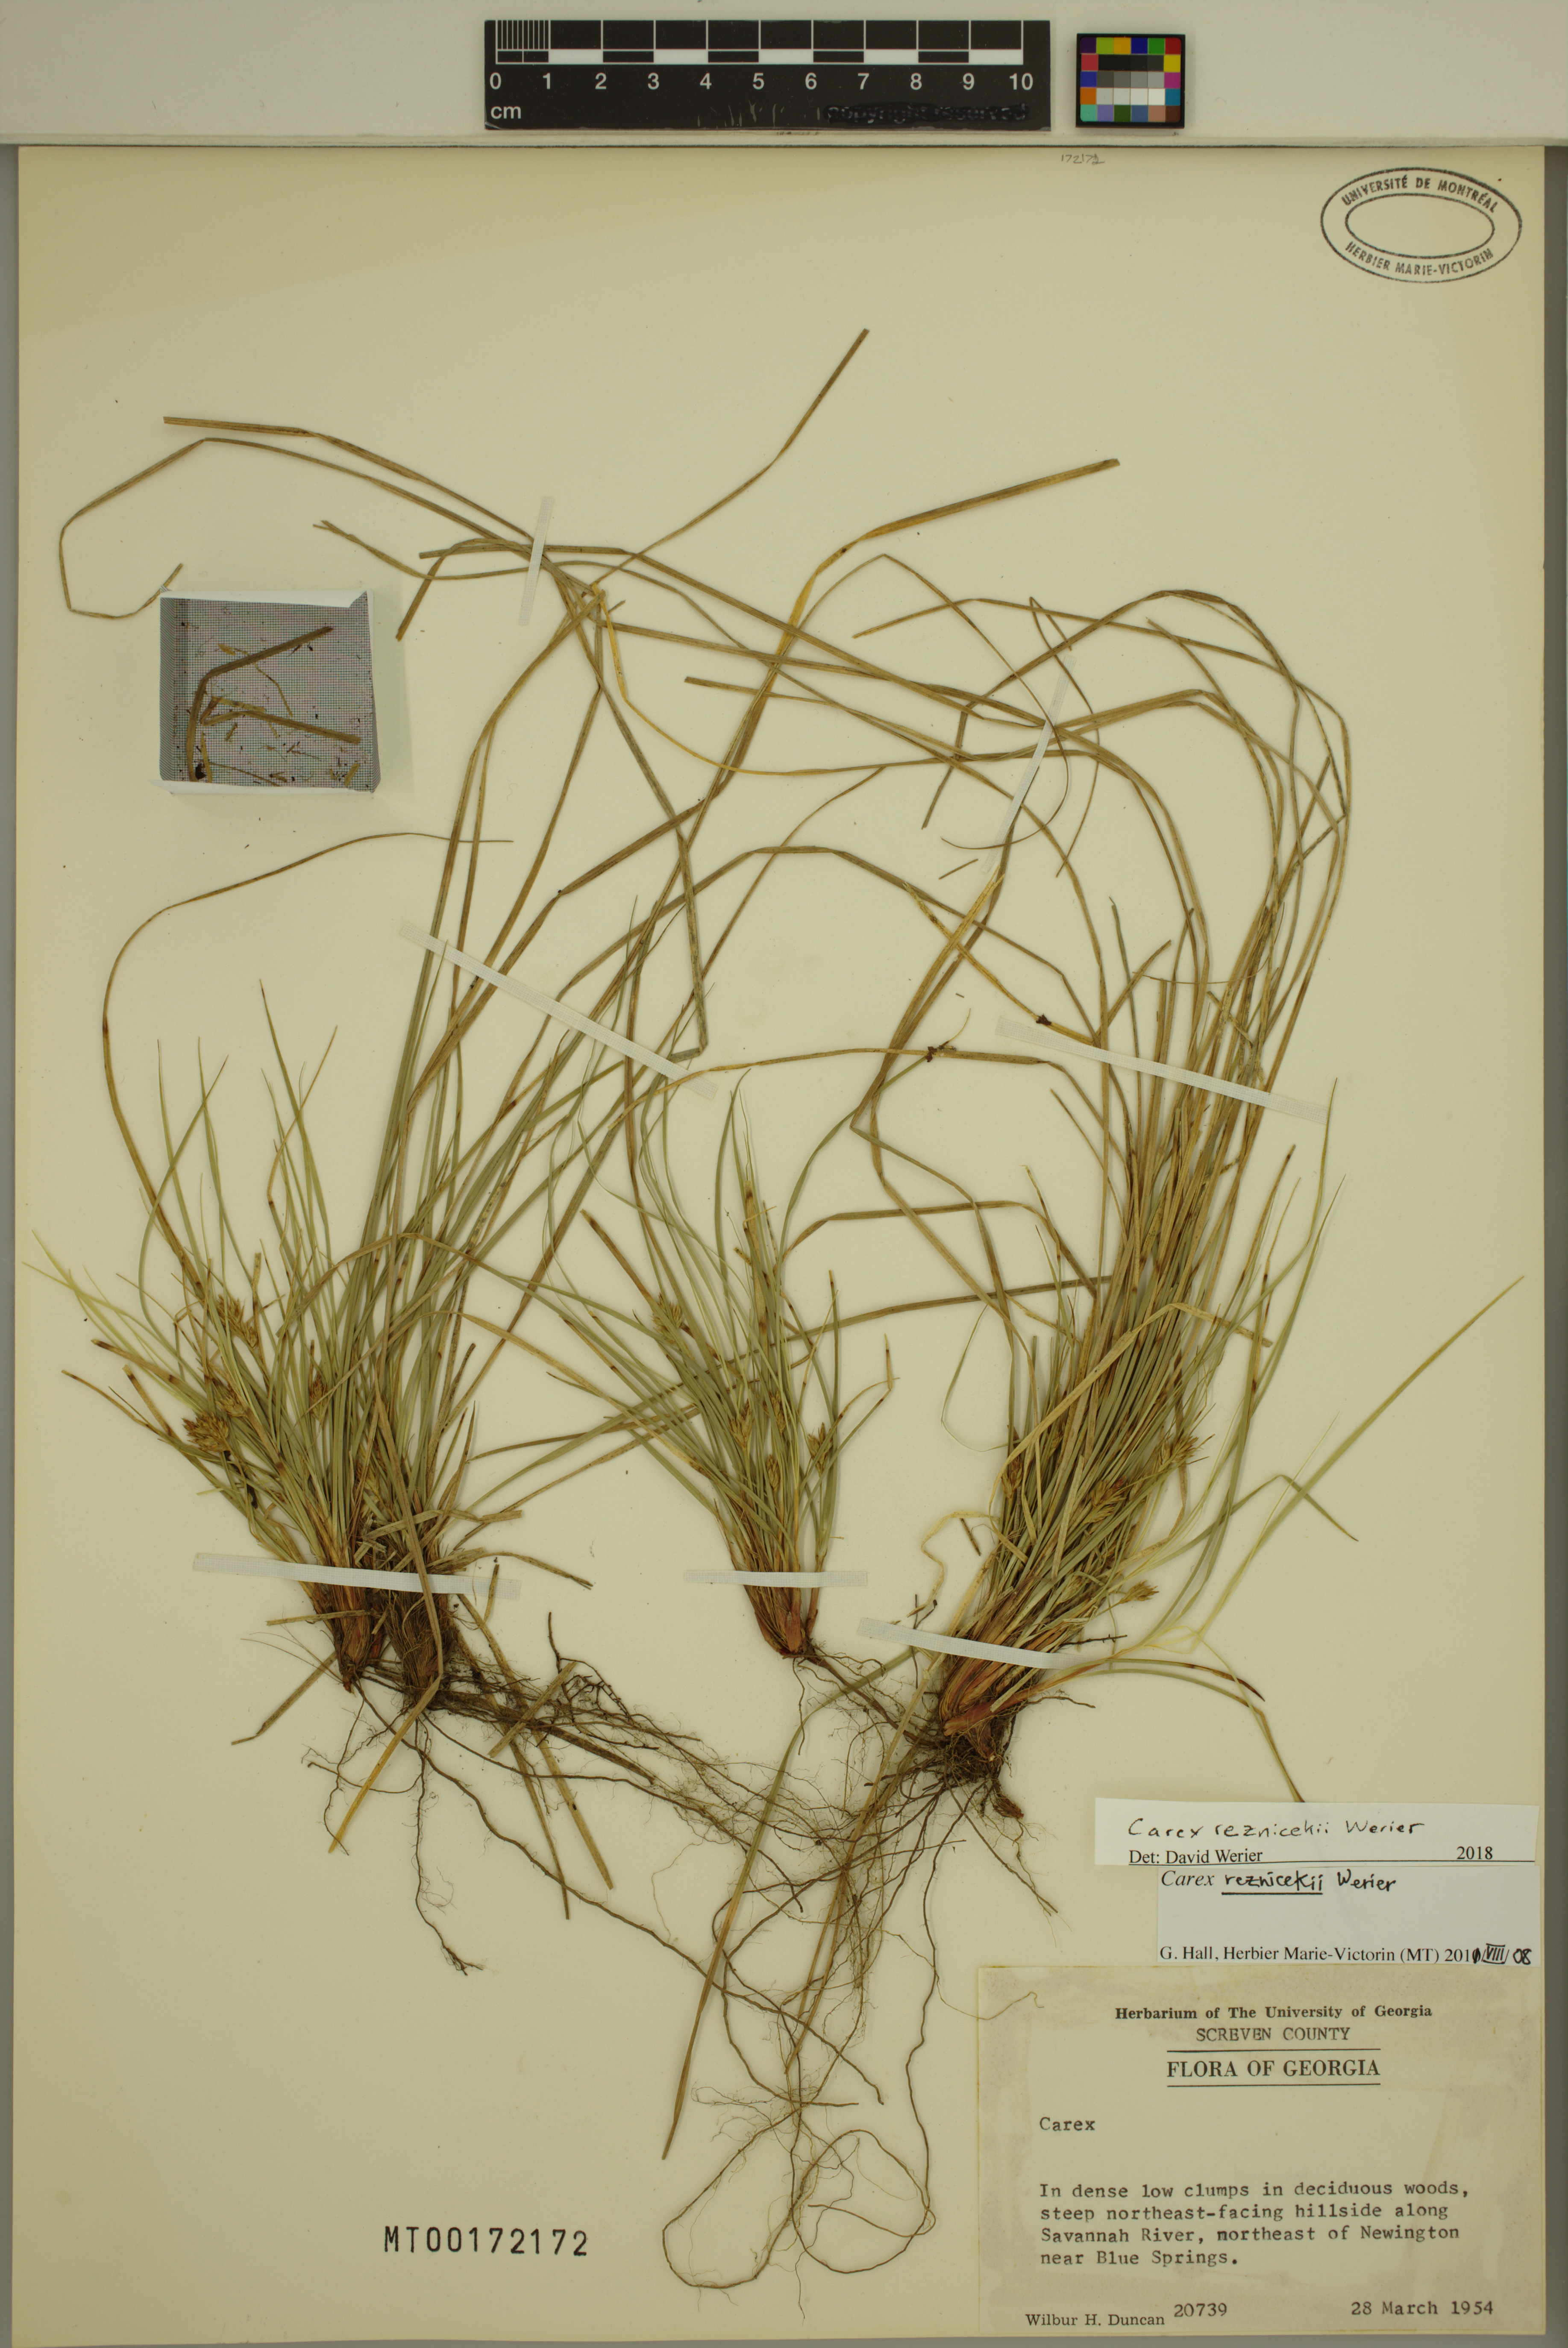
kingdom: Plantae
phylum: Tracheophyta
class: Liliopsida
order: Poales
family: Cyperaceae
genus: Carex
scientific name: Carex reznicekii
